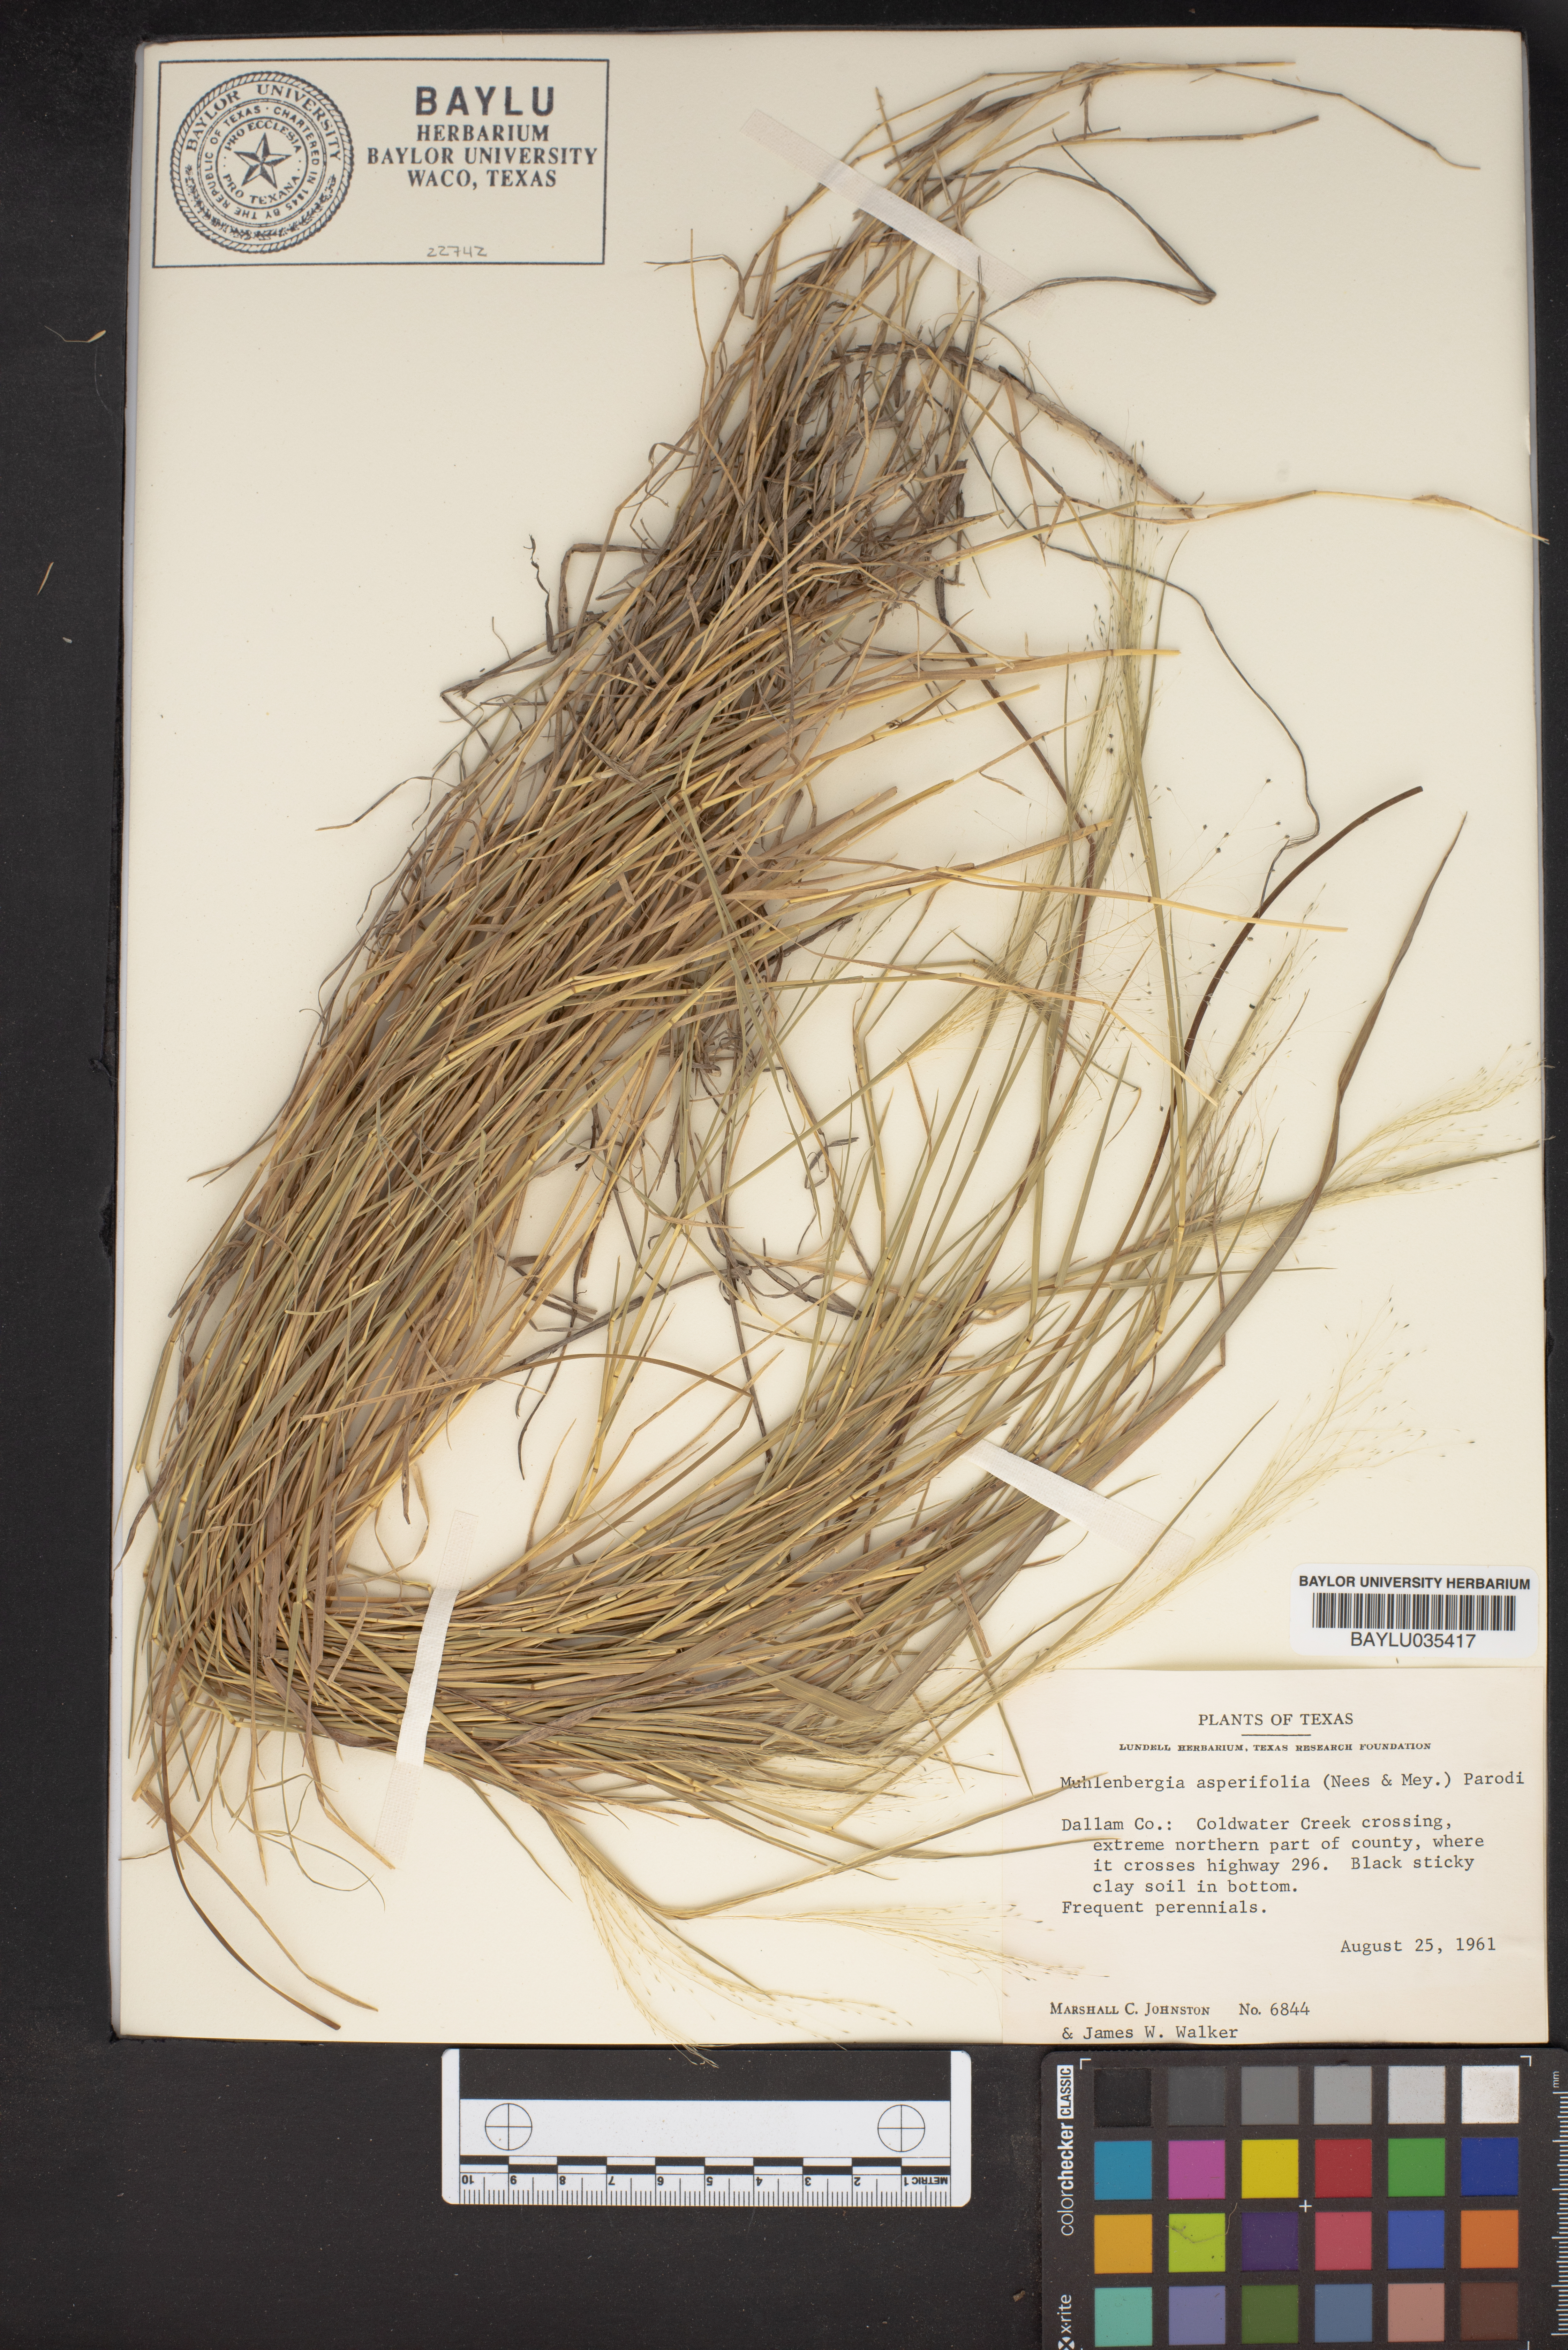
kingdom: Plantae
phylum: Tracheophyta
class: Liliopsida
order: Poales
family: Poaceae
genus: Muhlenbergia
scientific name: Muhlenbergia asperifolia
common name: Alkali muhly
